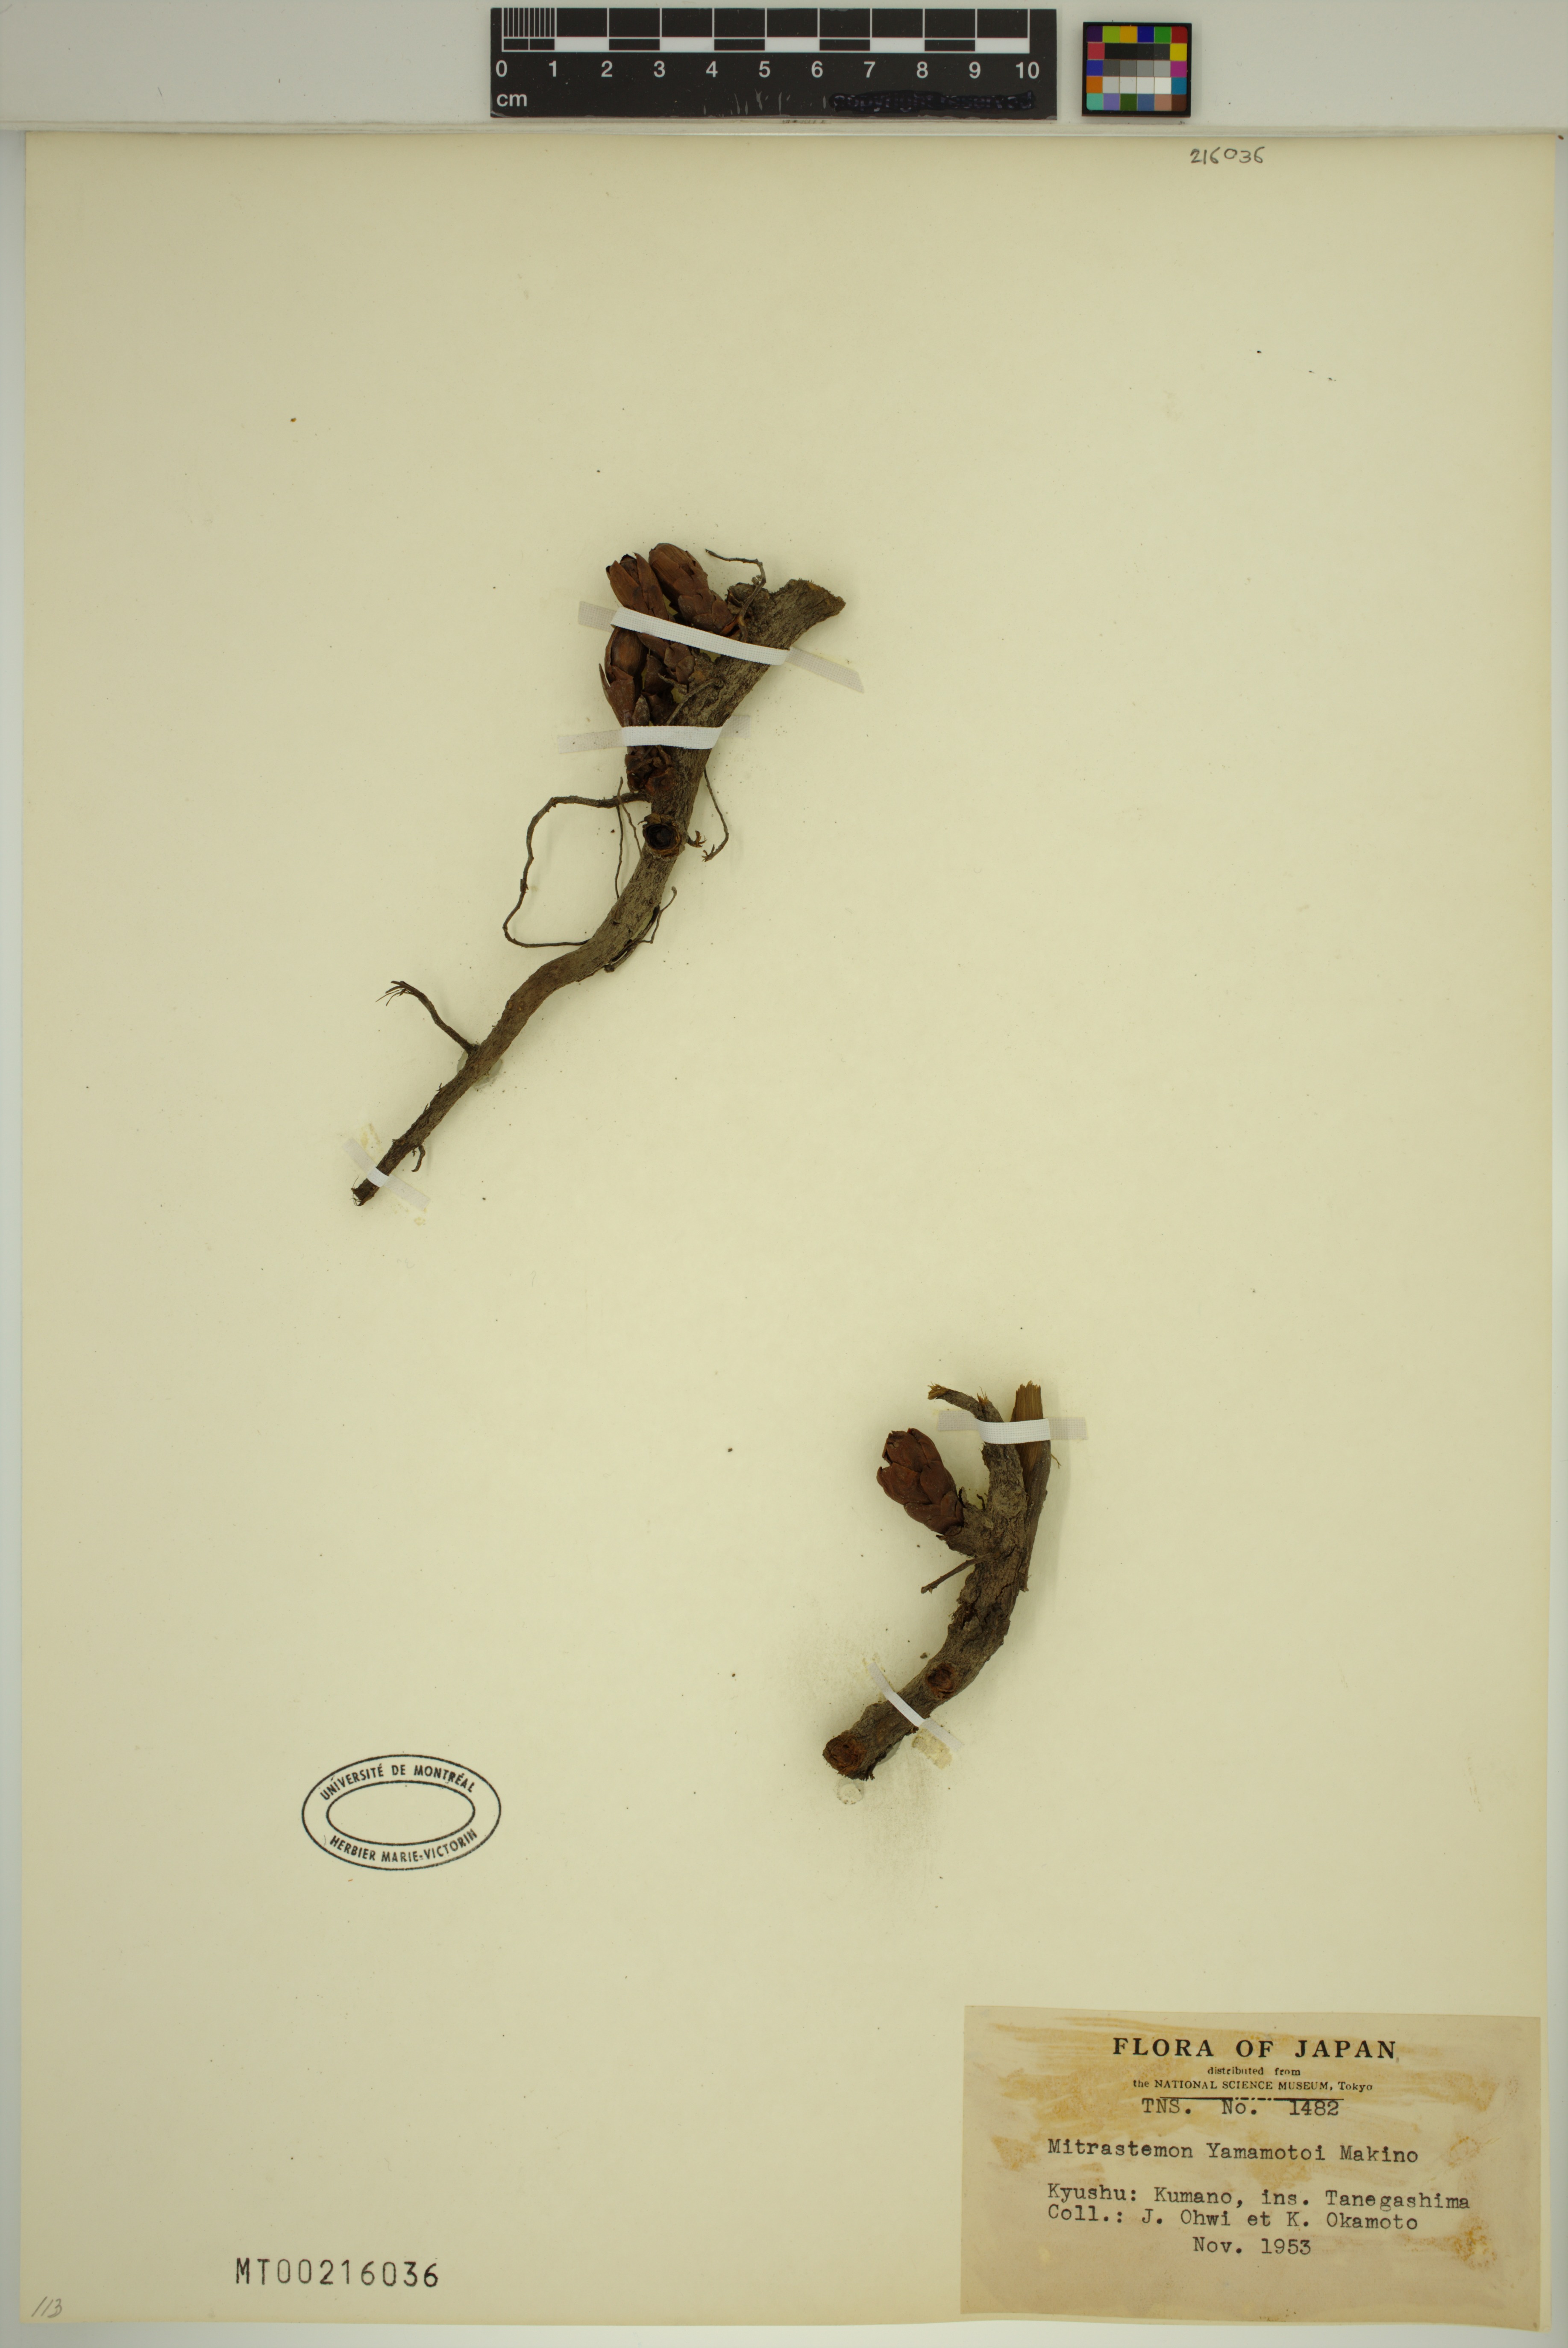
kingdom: Plantae
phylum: Tracheophyta
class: Magnoliopsida
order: Ericales
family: Mitrastemonaceae
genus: Mitrastemon
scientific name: Mitrastemon yamamotoi
